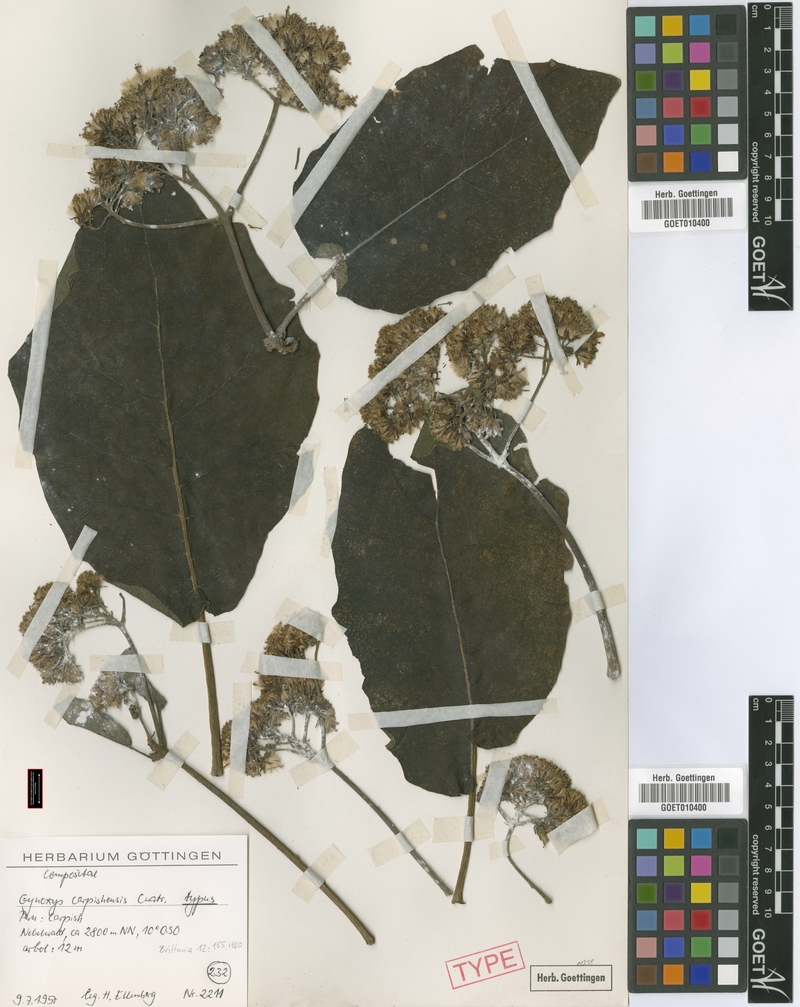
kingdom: Plantae
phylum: Tracheophyta
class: Magnoliopsida
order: Asterales
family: Asteraceae
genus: Nordenstamia
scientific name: Nordenstamia carpishensis
